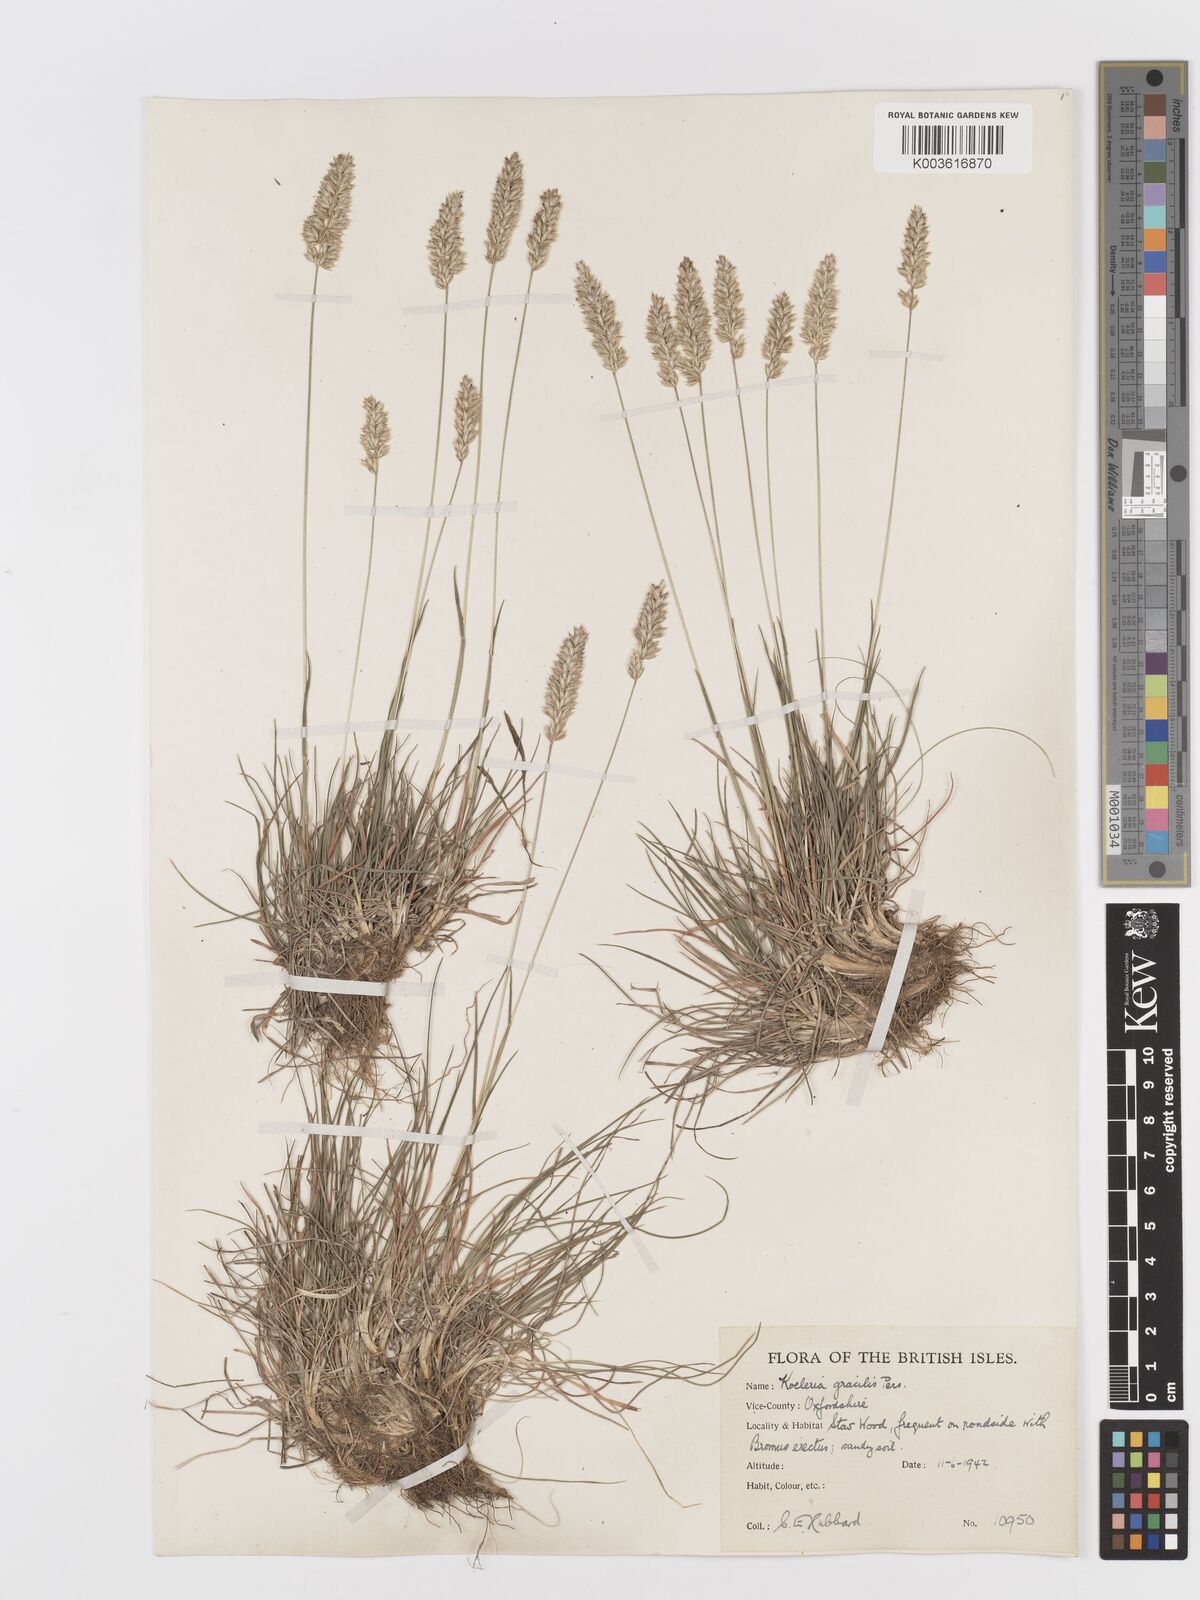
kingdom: Plantae
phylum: Tracheophyta
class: Liliopsida
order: Poales
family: Poaceae
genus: Koeleria
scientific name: Koeleria macrantha
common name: Crested hair-grass
